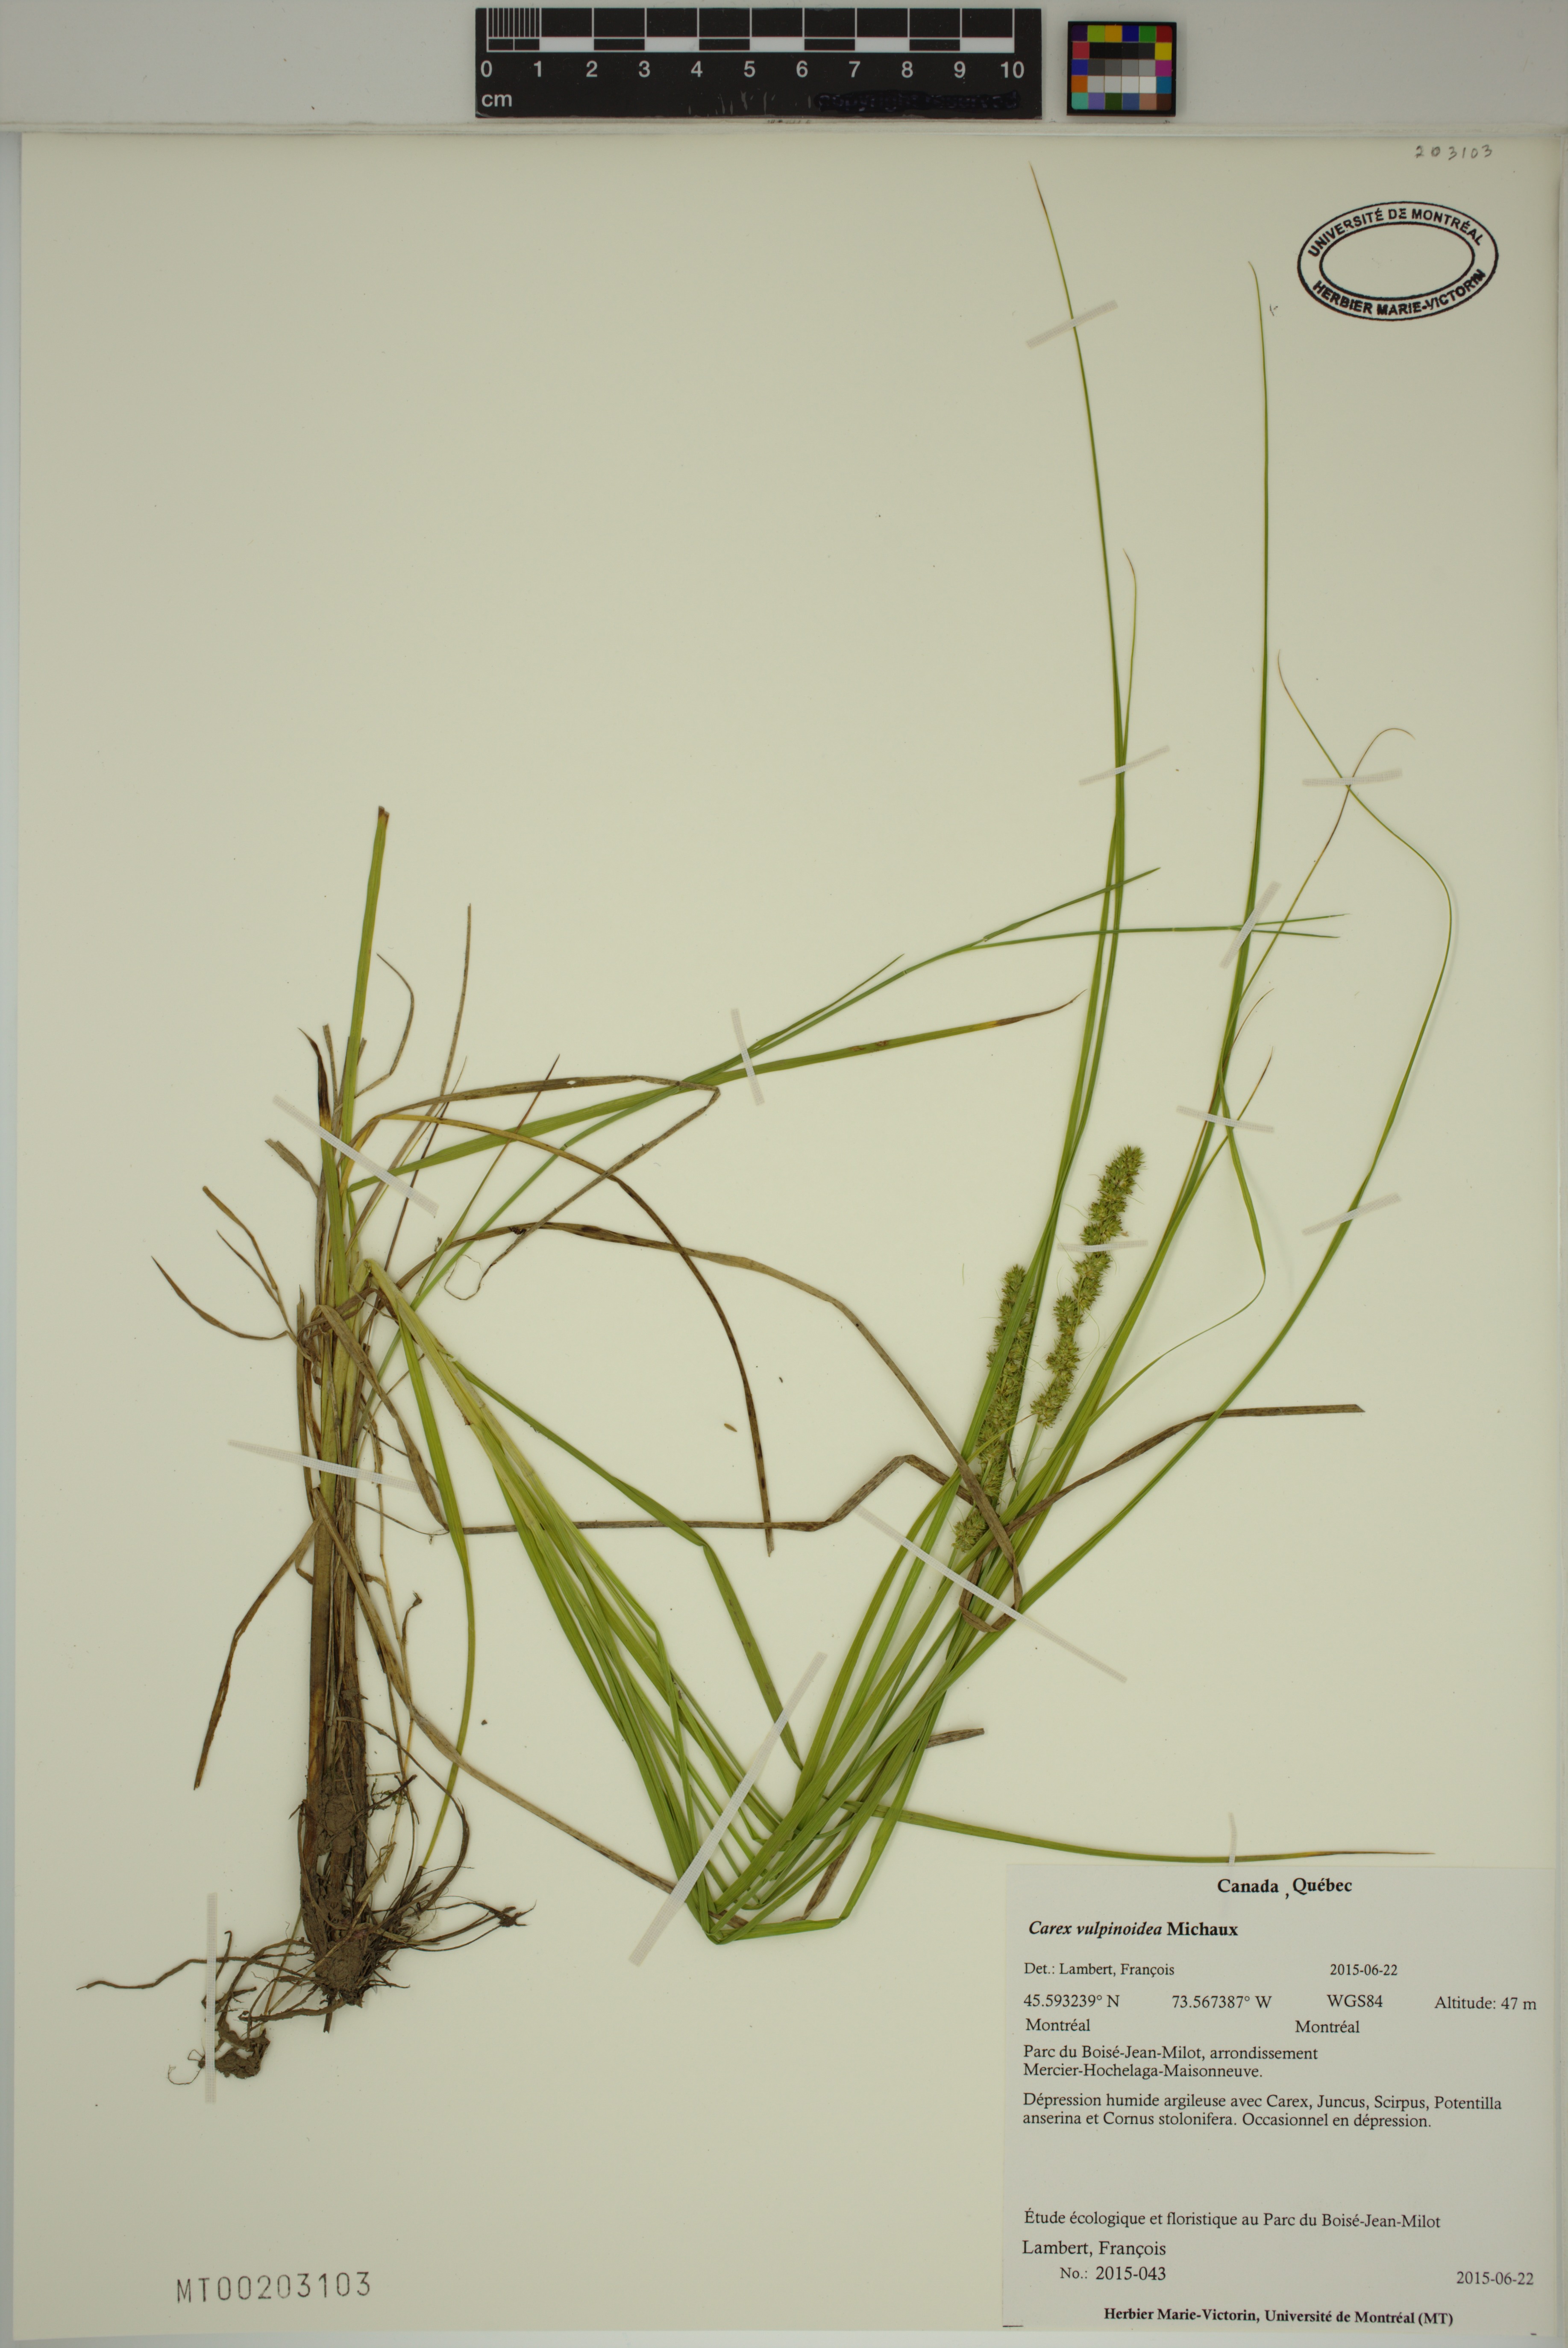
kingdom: Plantae
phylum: Tracheophyta
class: Liliopsida
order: Poales
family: Cyperaceae
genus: Carex
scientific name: Carex vulpinoidea
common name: American fox-sedge
